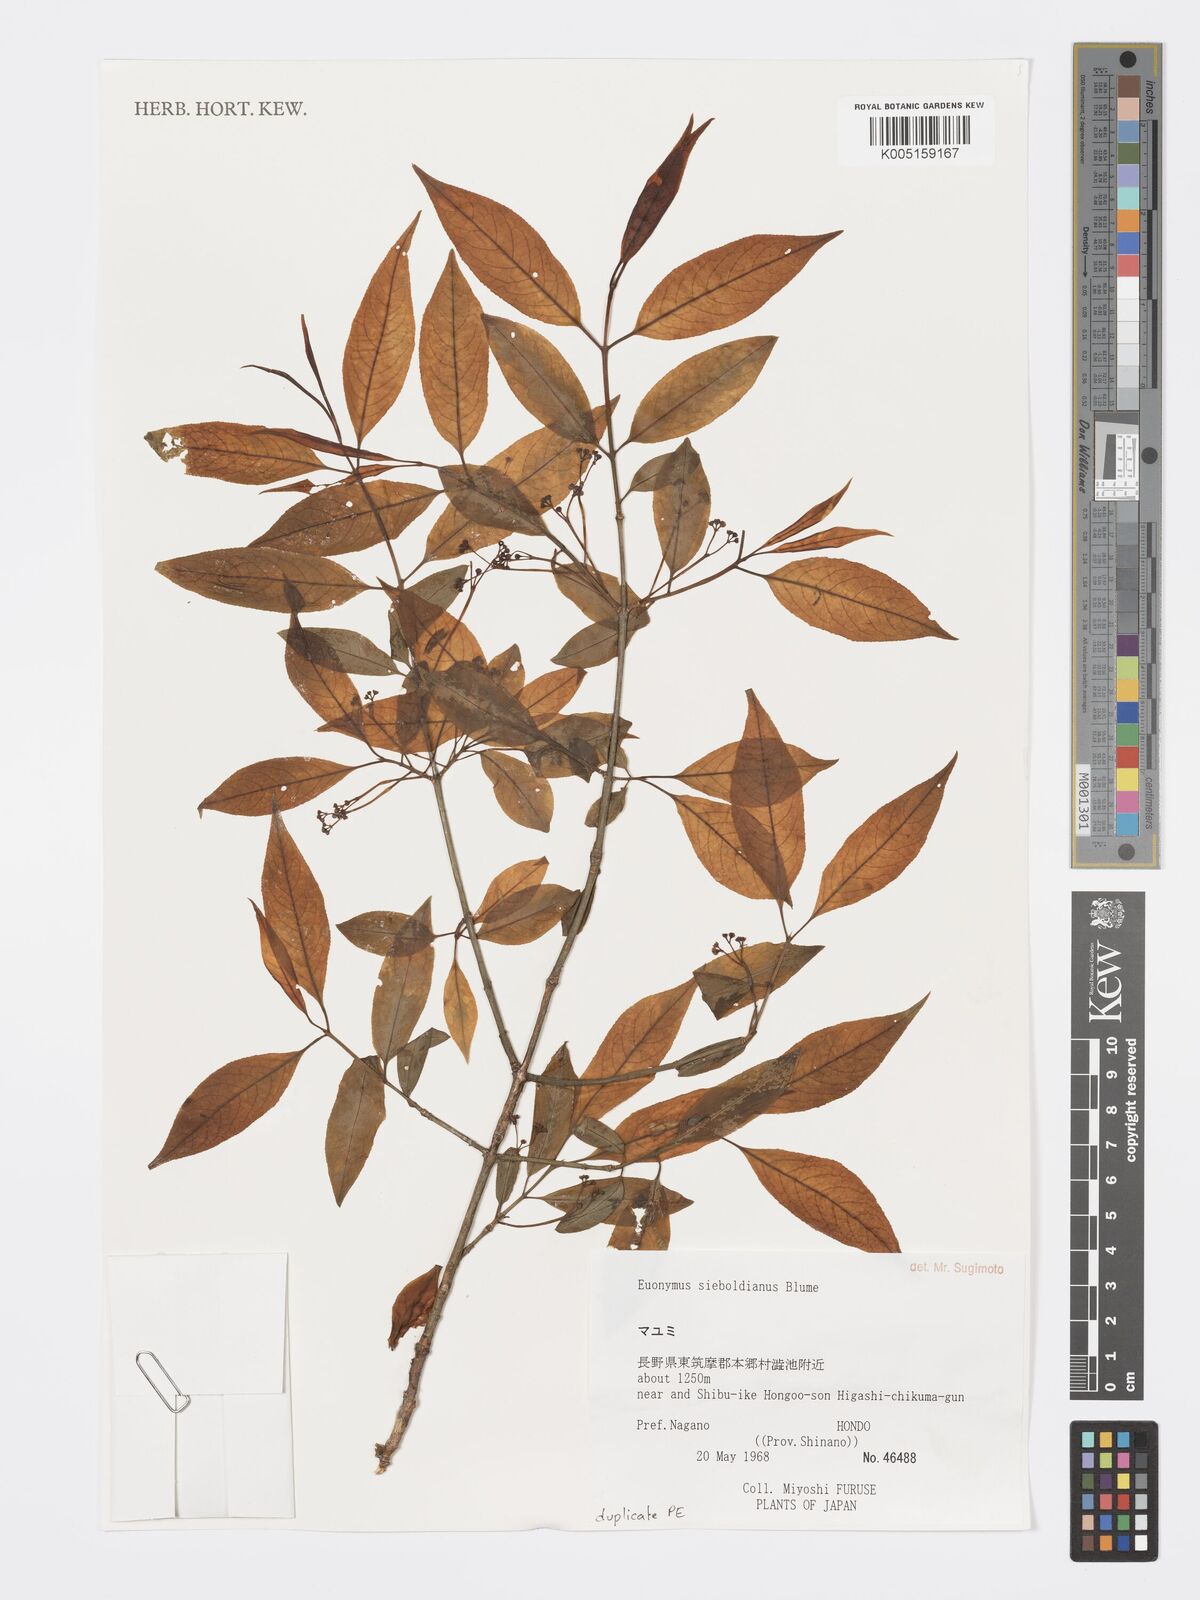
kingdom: Plantae
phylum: Tracheophyta
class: Magnoliopsida
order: Celastrales
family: Celastraceae
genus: Euonymus
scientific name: Euonymus hamiltonianus
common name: Hamilton's spindletree
